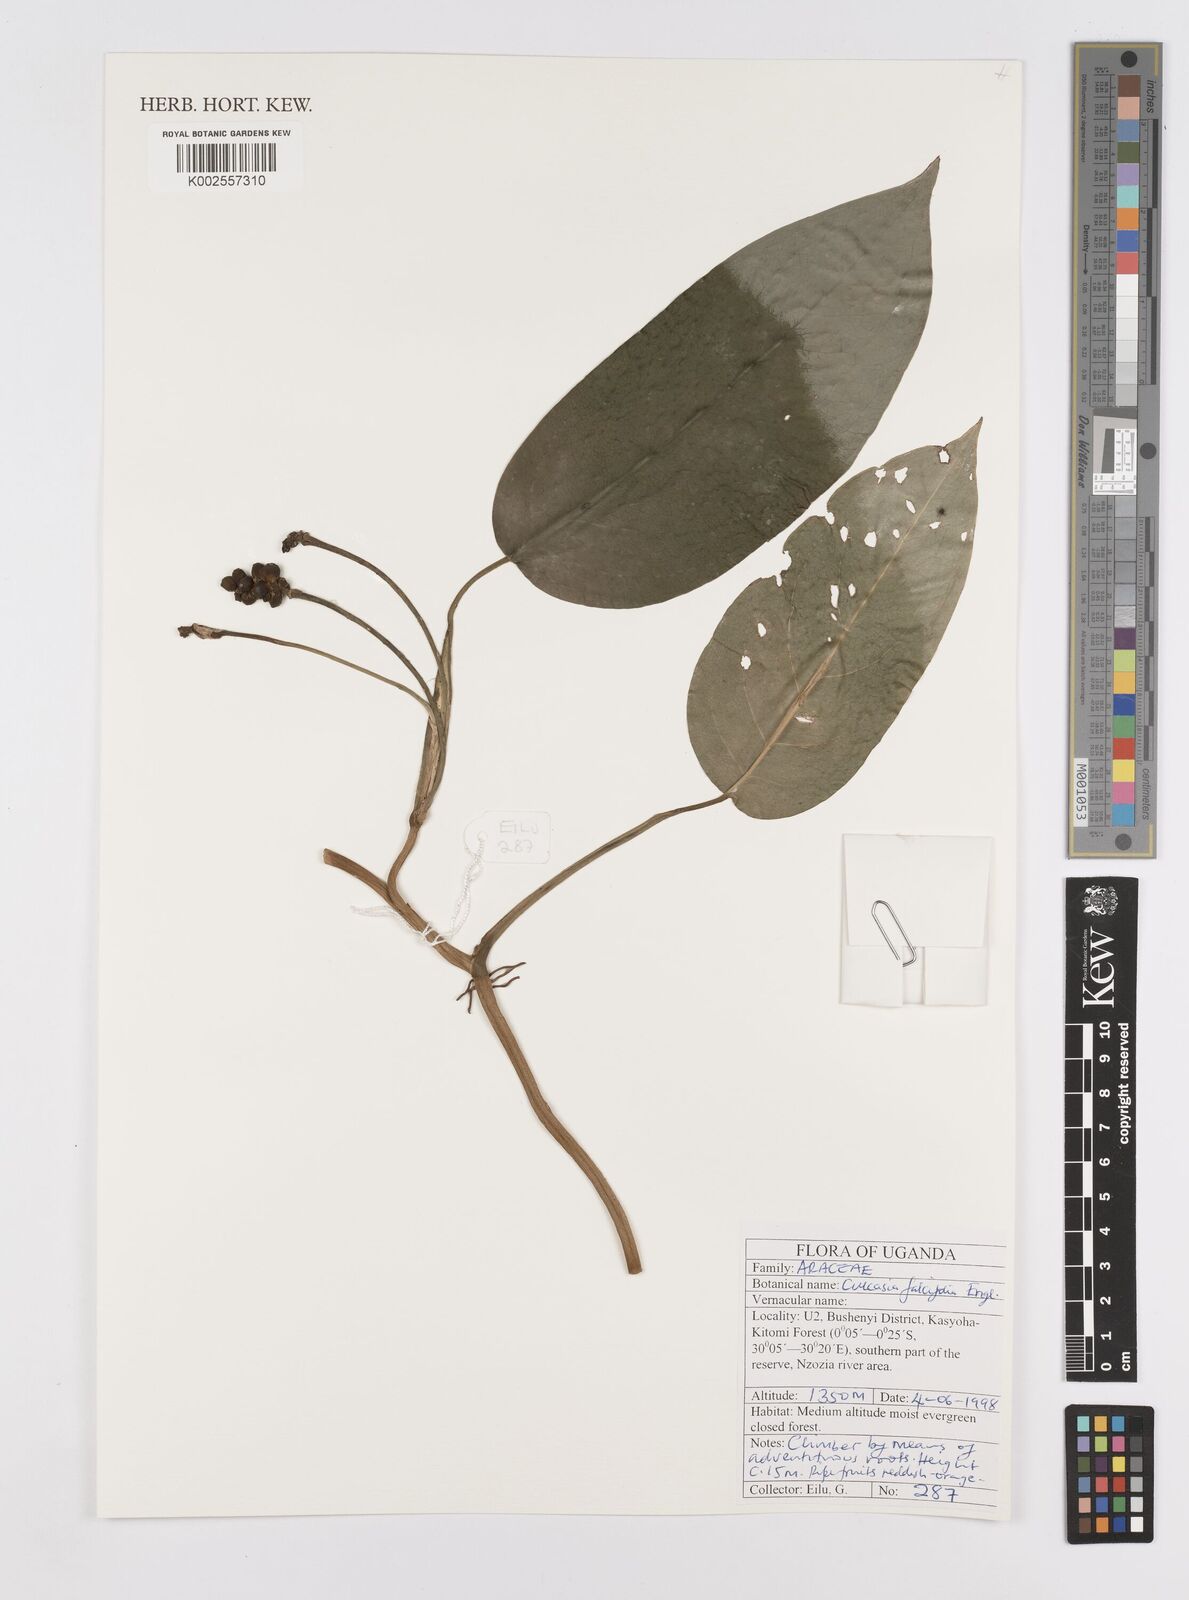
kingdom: Plantae
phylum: Tracheophyta
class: Liliopsida
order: Alismatales
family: Araceae
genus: Culcasia
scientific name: Culcasia falcifolia
